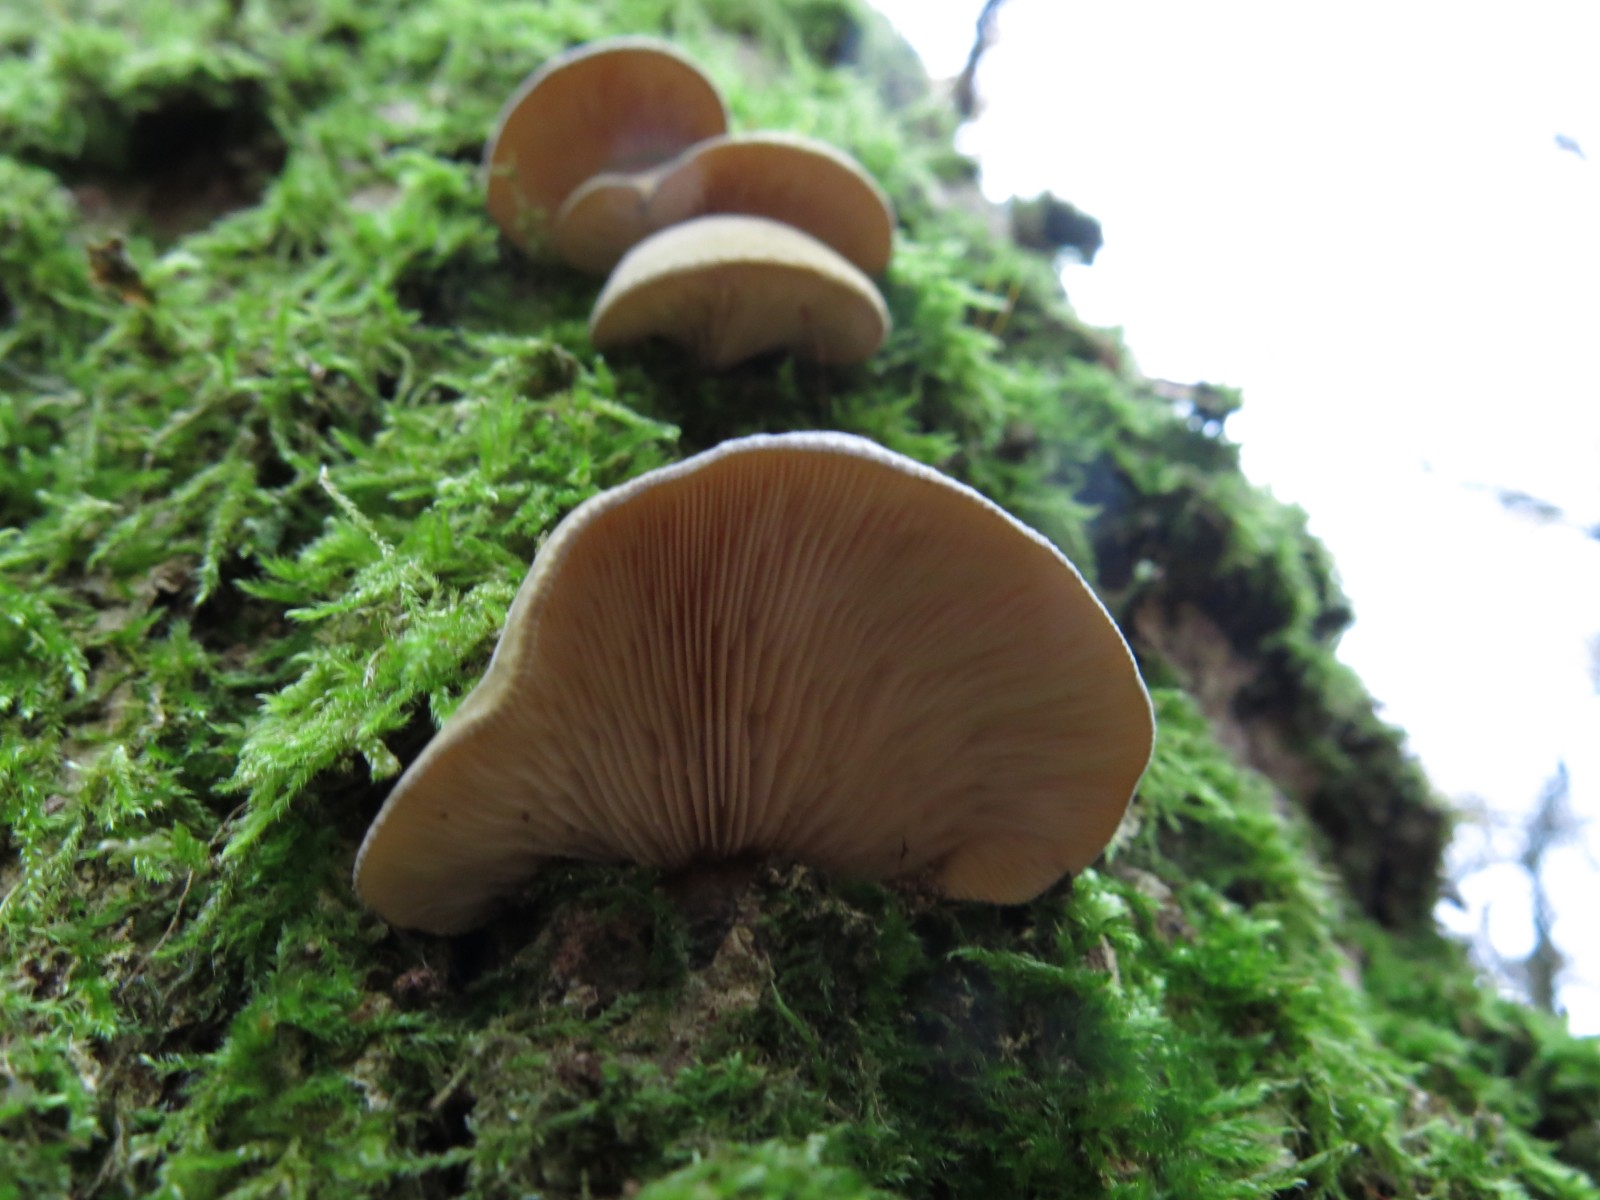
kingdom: Fungi
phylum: Basidiomycota
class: Agaricomycetes
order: Agaricales
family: Sarcomyxaceae
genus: Sarcomyxa
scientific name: Sarcomyxa serotina
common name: gummihat
